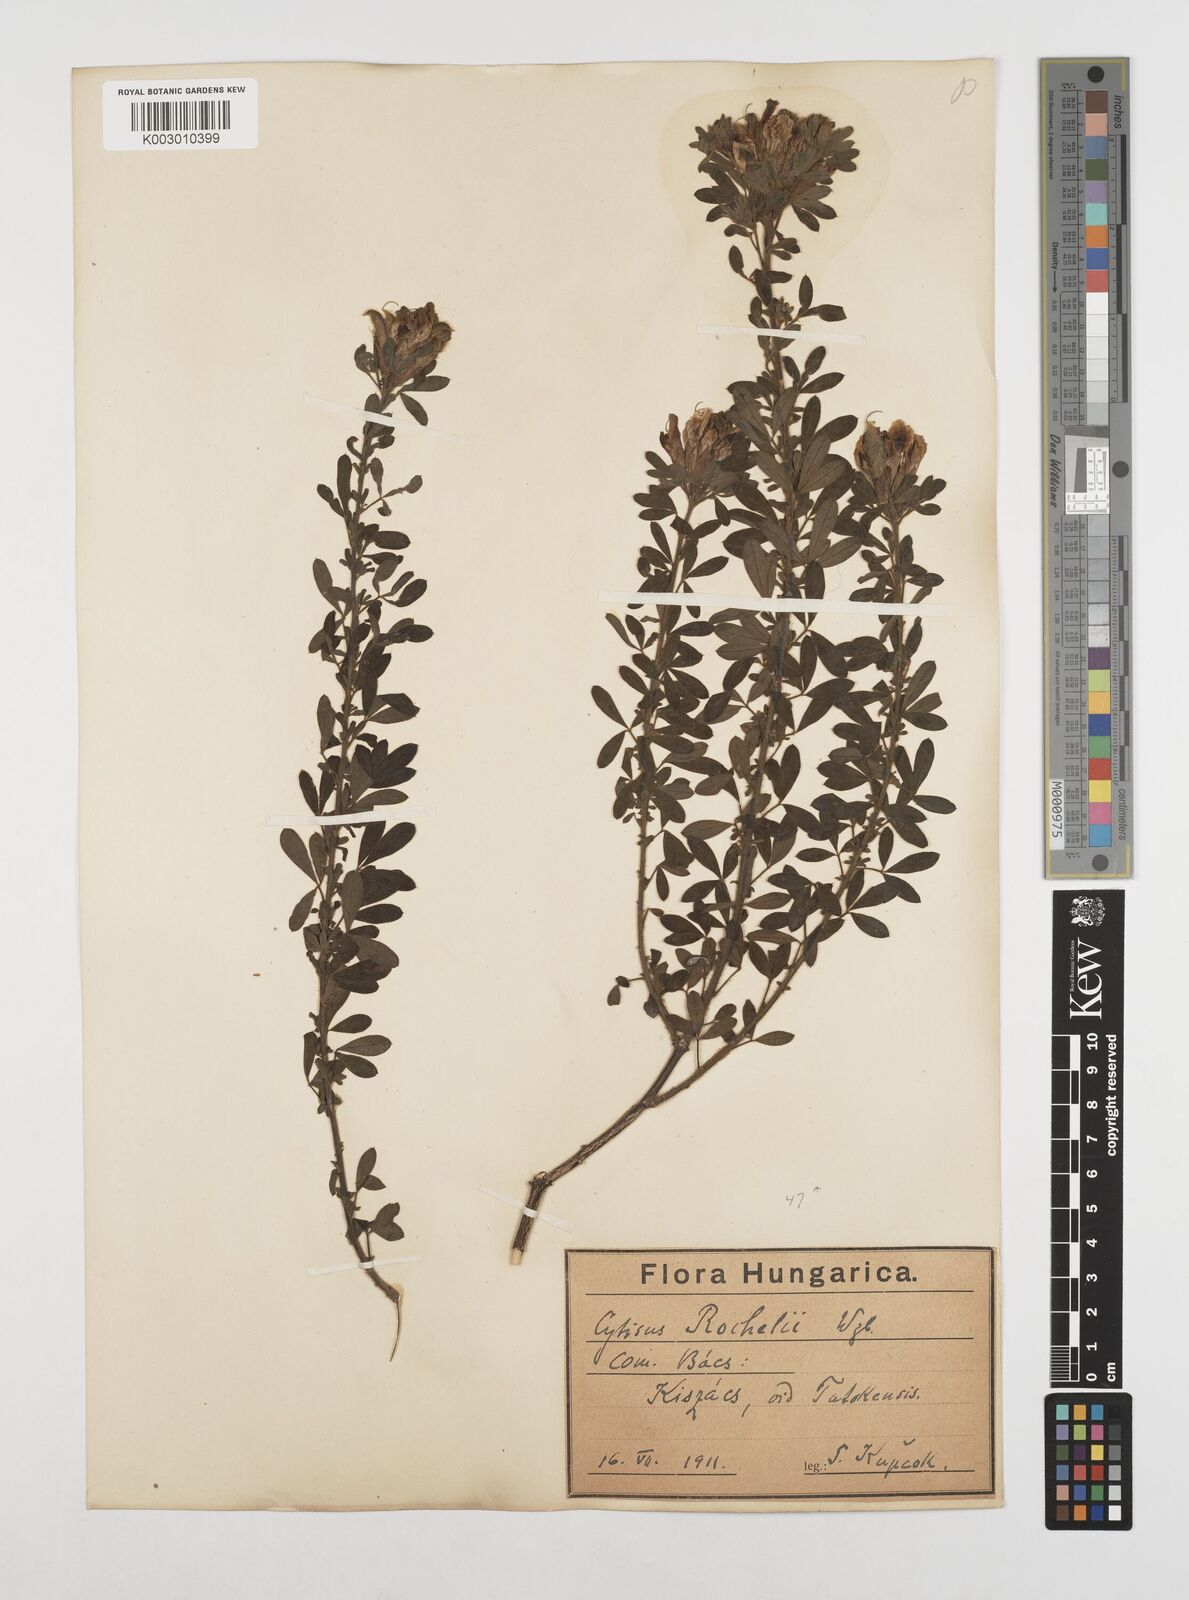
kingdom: Plantae
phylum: Tracheophyta
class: Magnoliopsida
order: Fabales
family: Fabaceae
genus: Chamaecytisus
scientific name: Chamaecytisus rochelii
